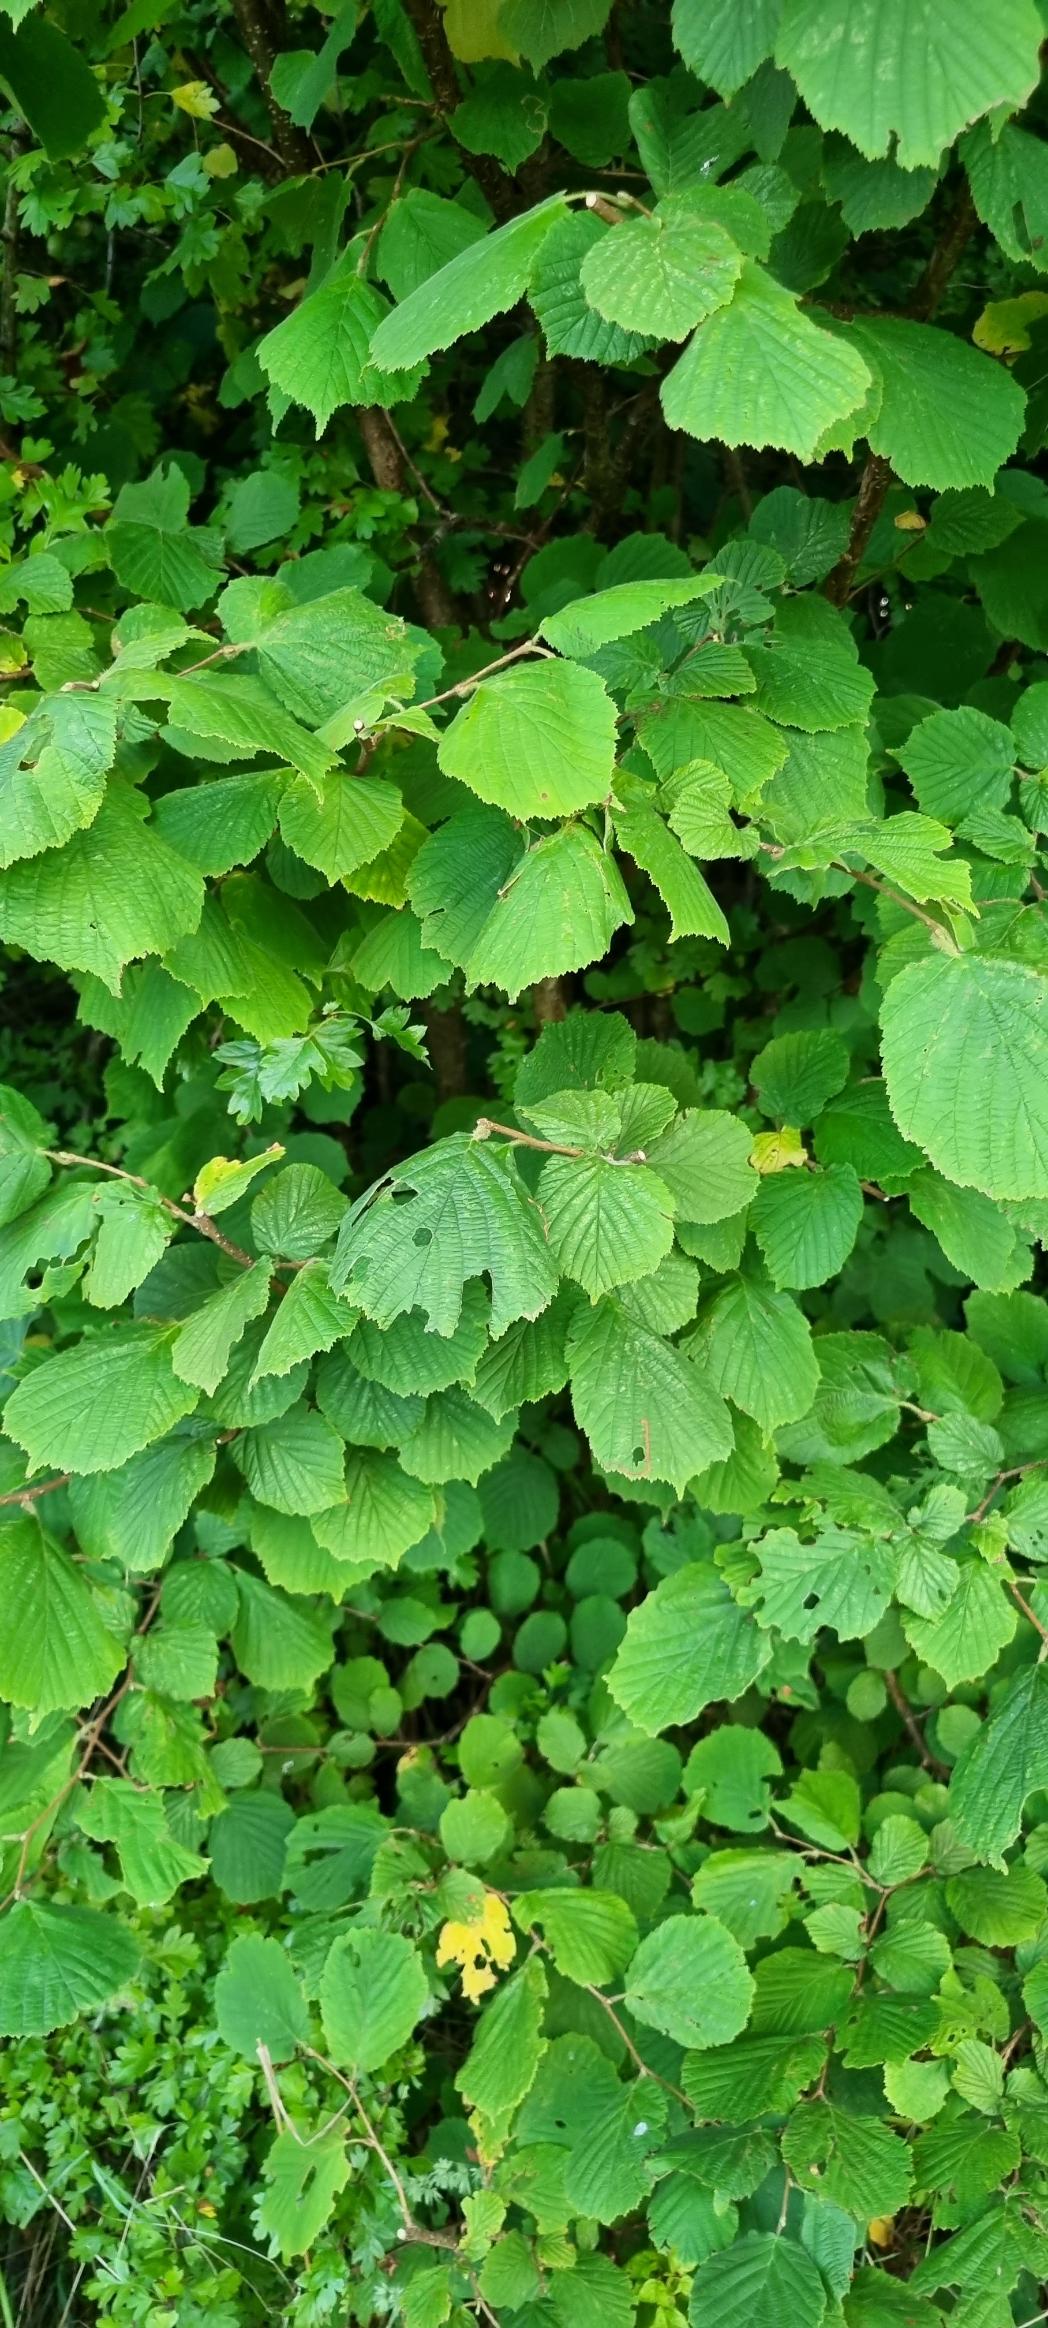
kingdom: Plantae
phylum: Tracheophyta
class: Magnoliopsida
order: Fagales
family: Betulaceae
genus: Corylus
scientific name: Corylus avellana
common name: Hassel
